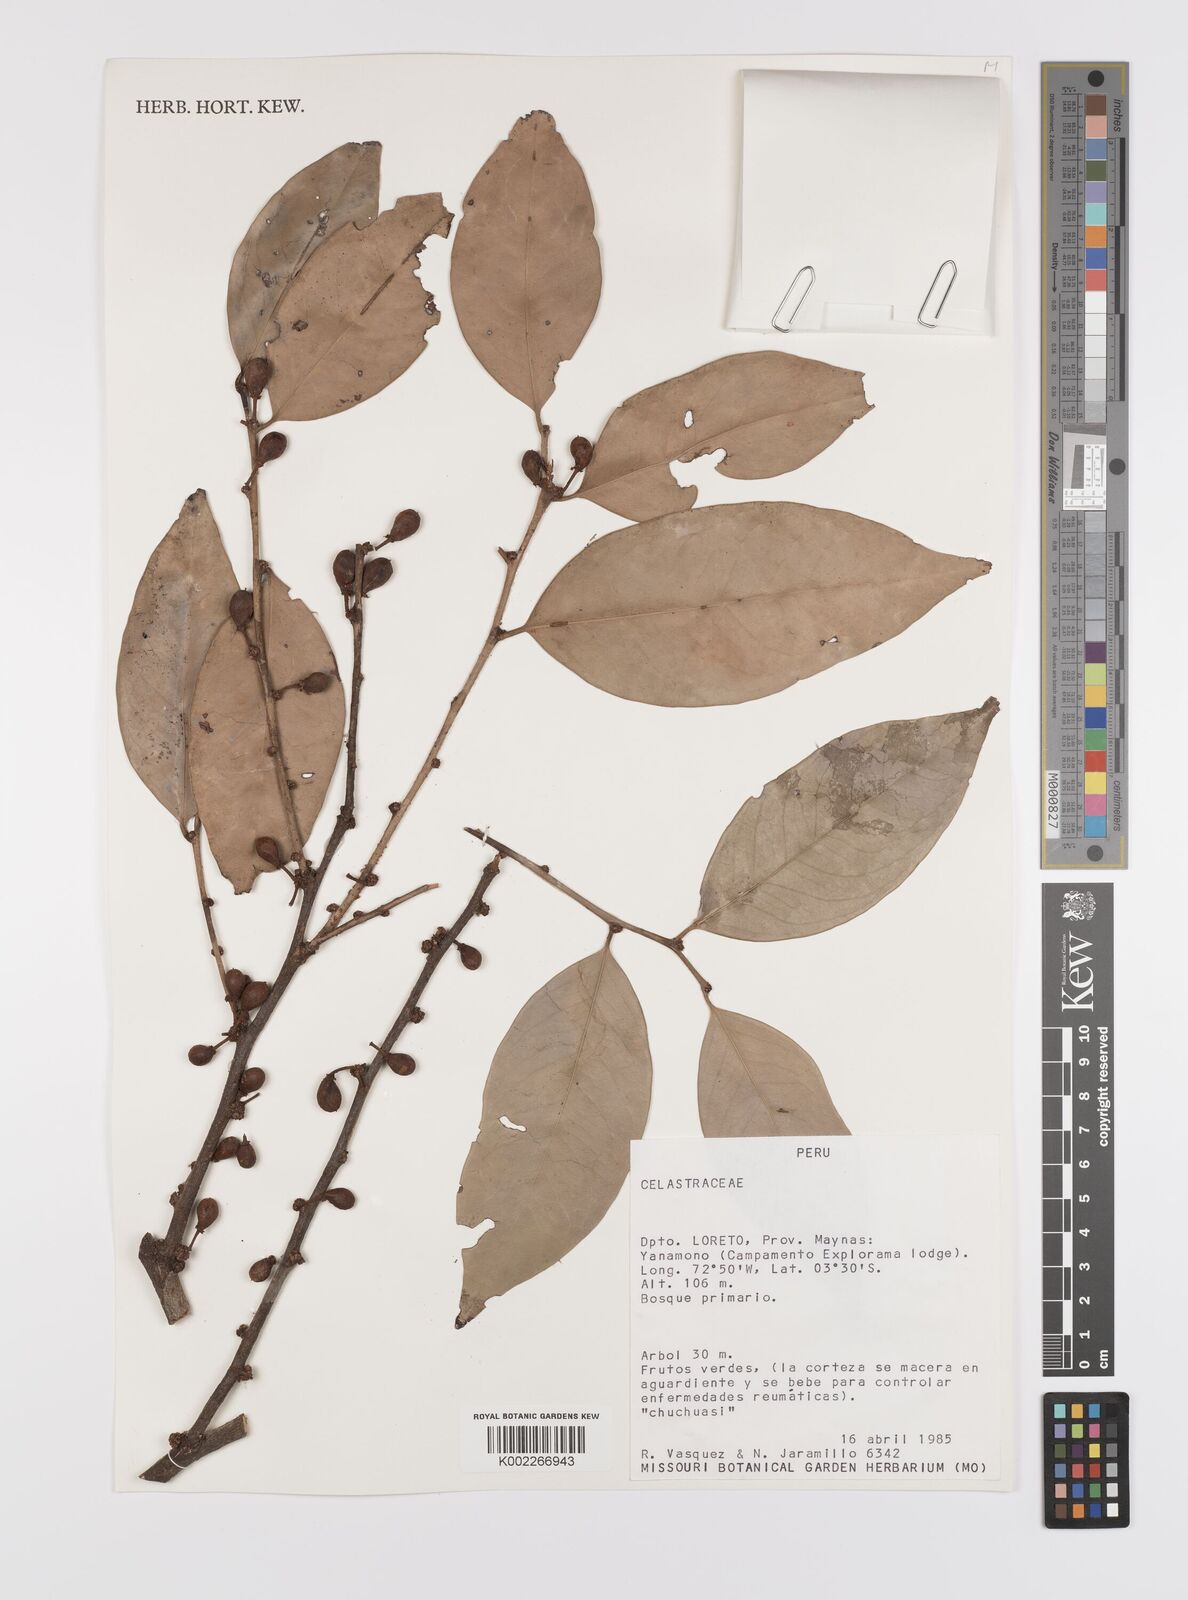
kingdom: Plantae
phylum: Tracheophyta
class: Magnoliopsida
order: Celastrales
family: Celastraceae
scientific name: Celastraceae
